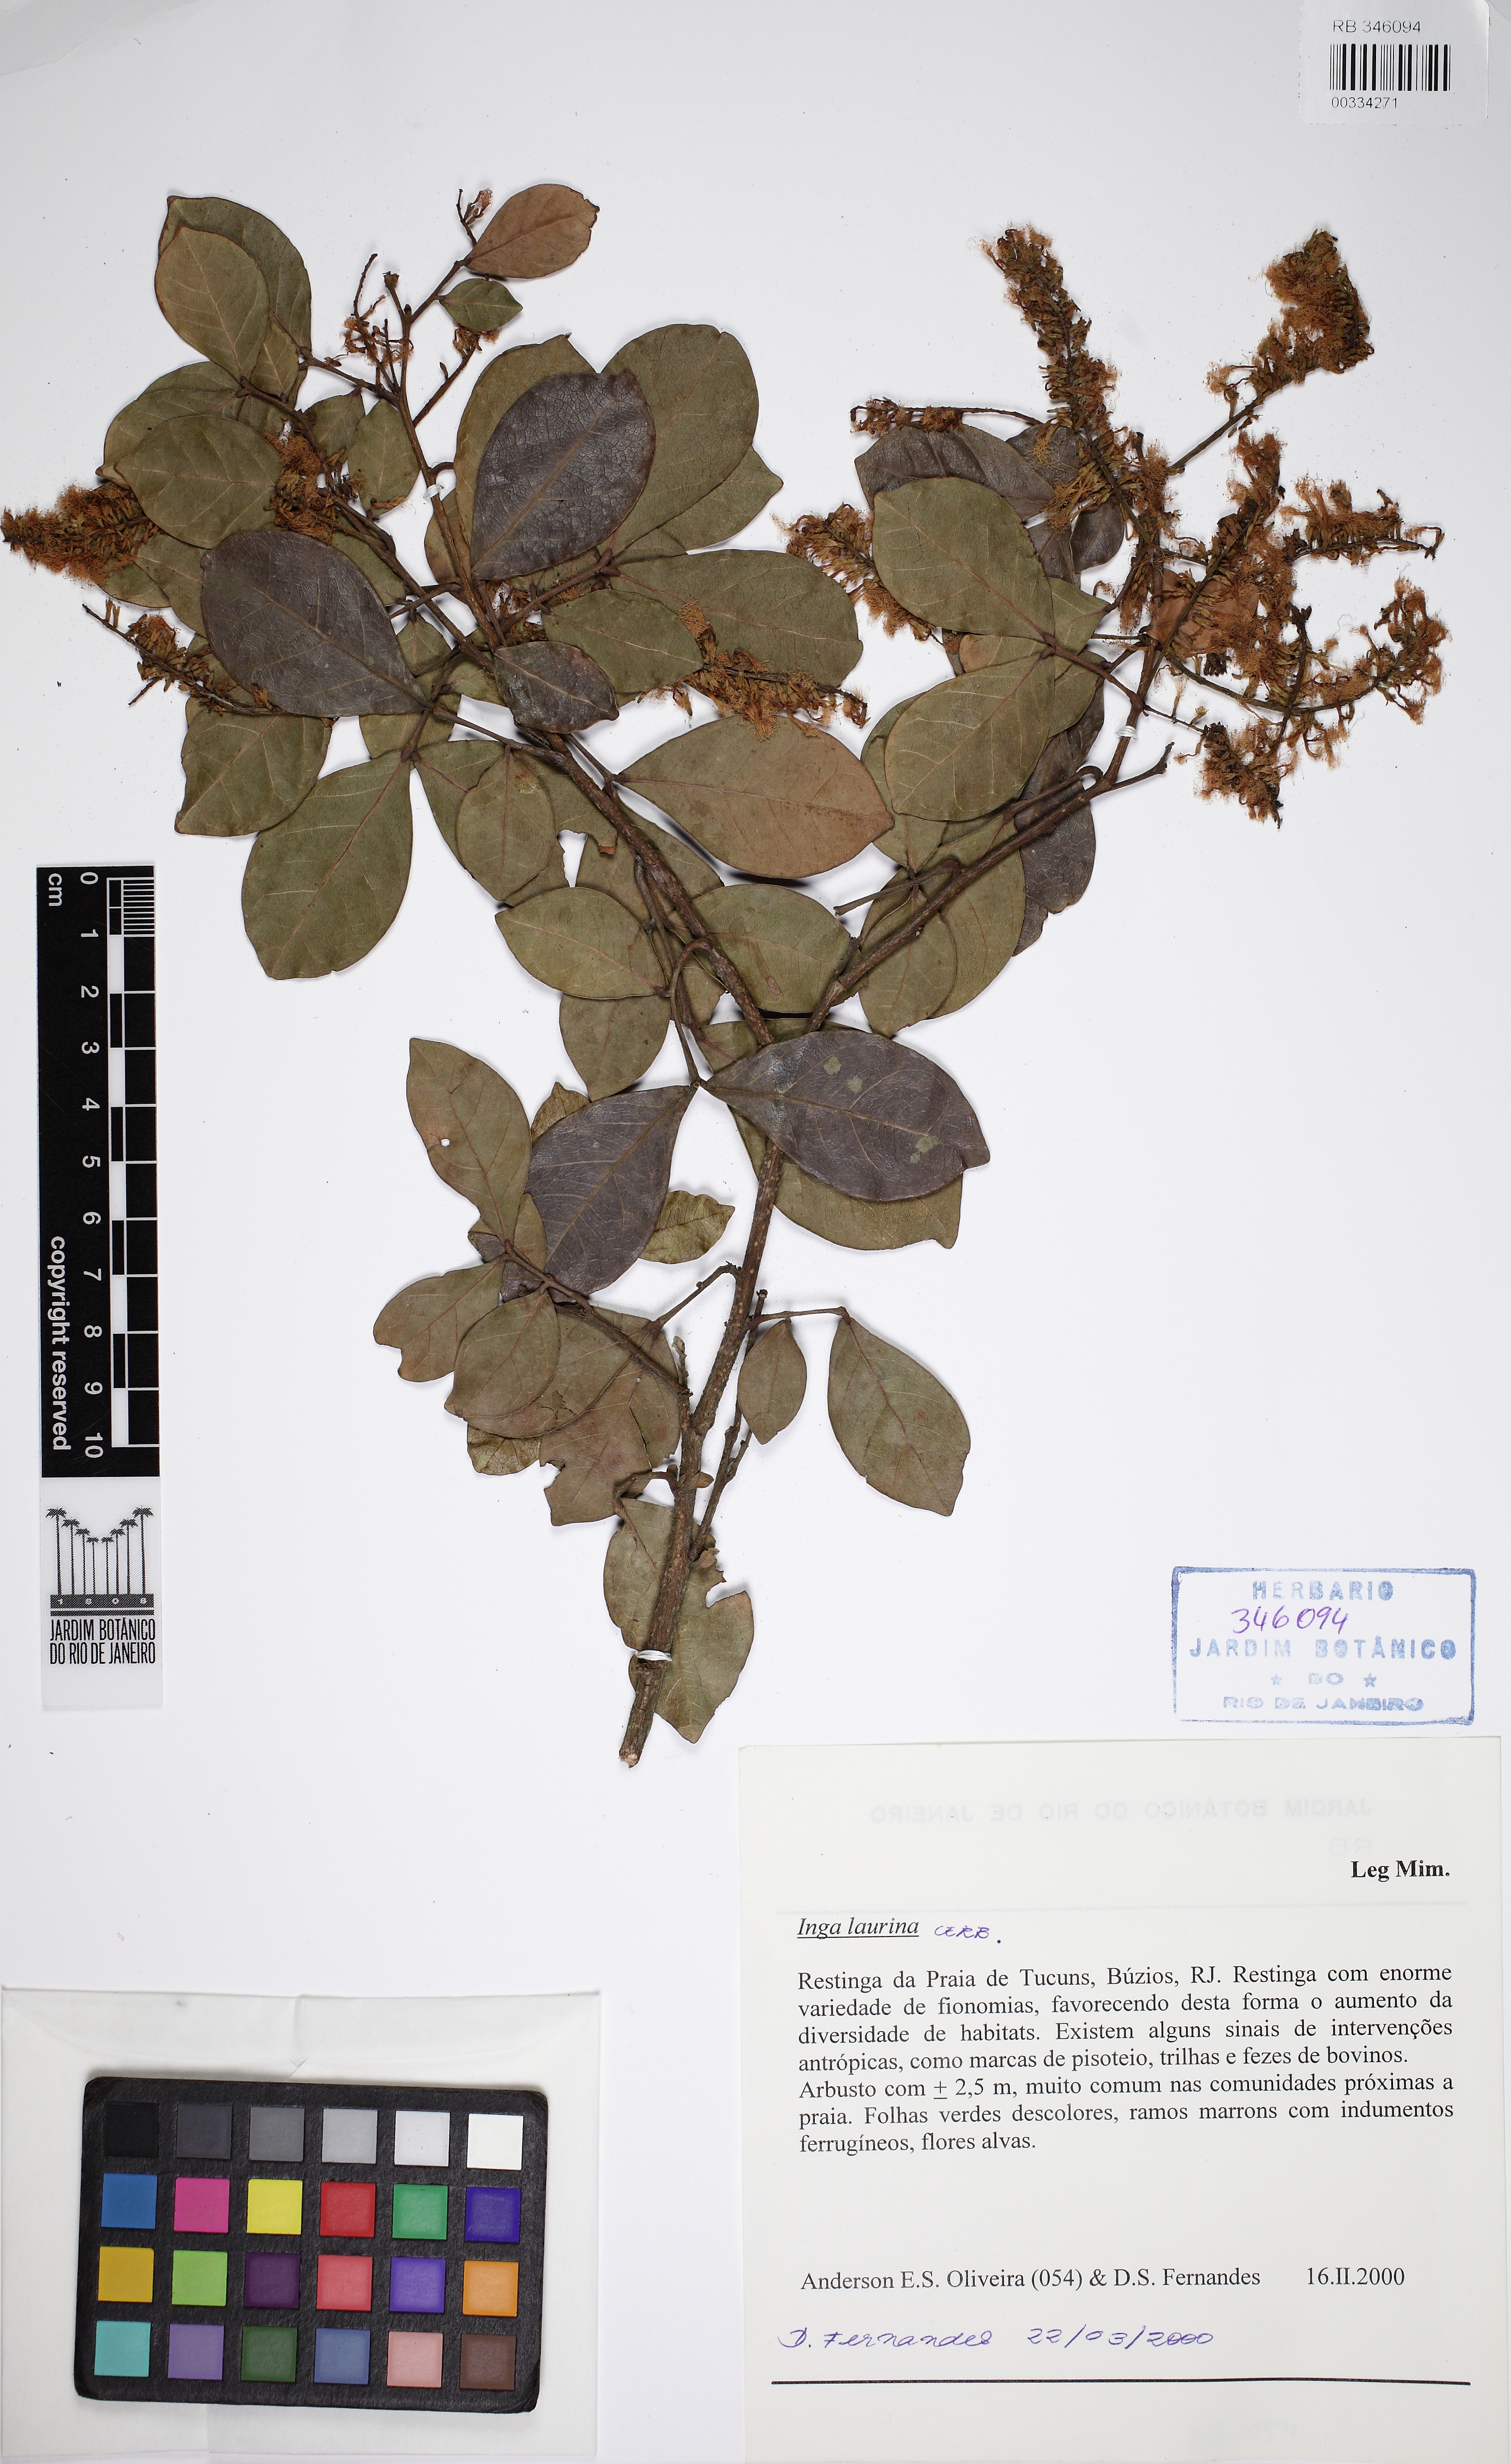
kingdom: Plantae
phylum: Tracheophyta
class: Magnoliopsida
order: Fabales
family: Fabaceae
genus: Inga
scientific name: Inga laurina
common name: Red wood
